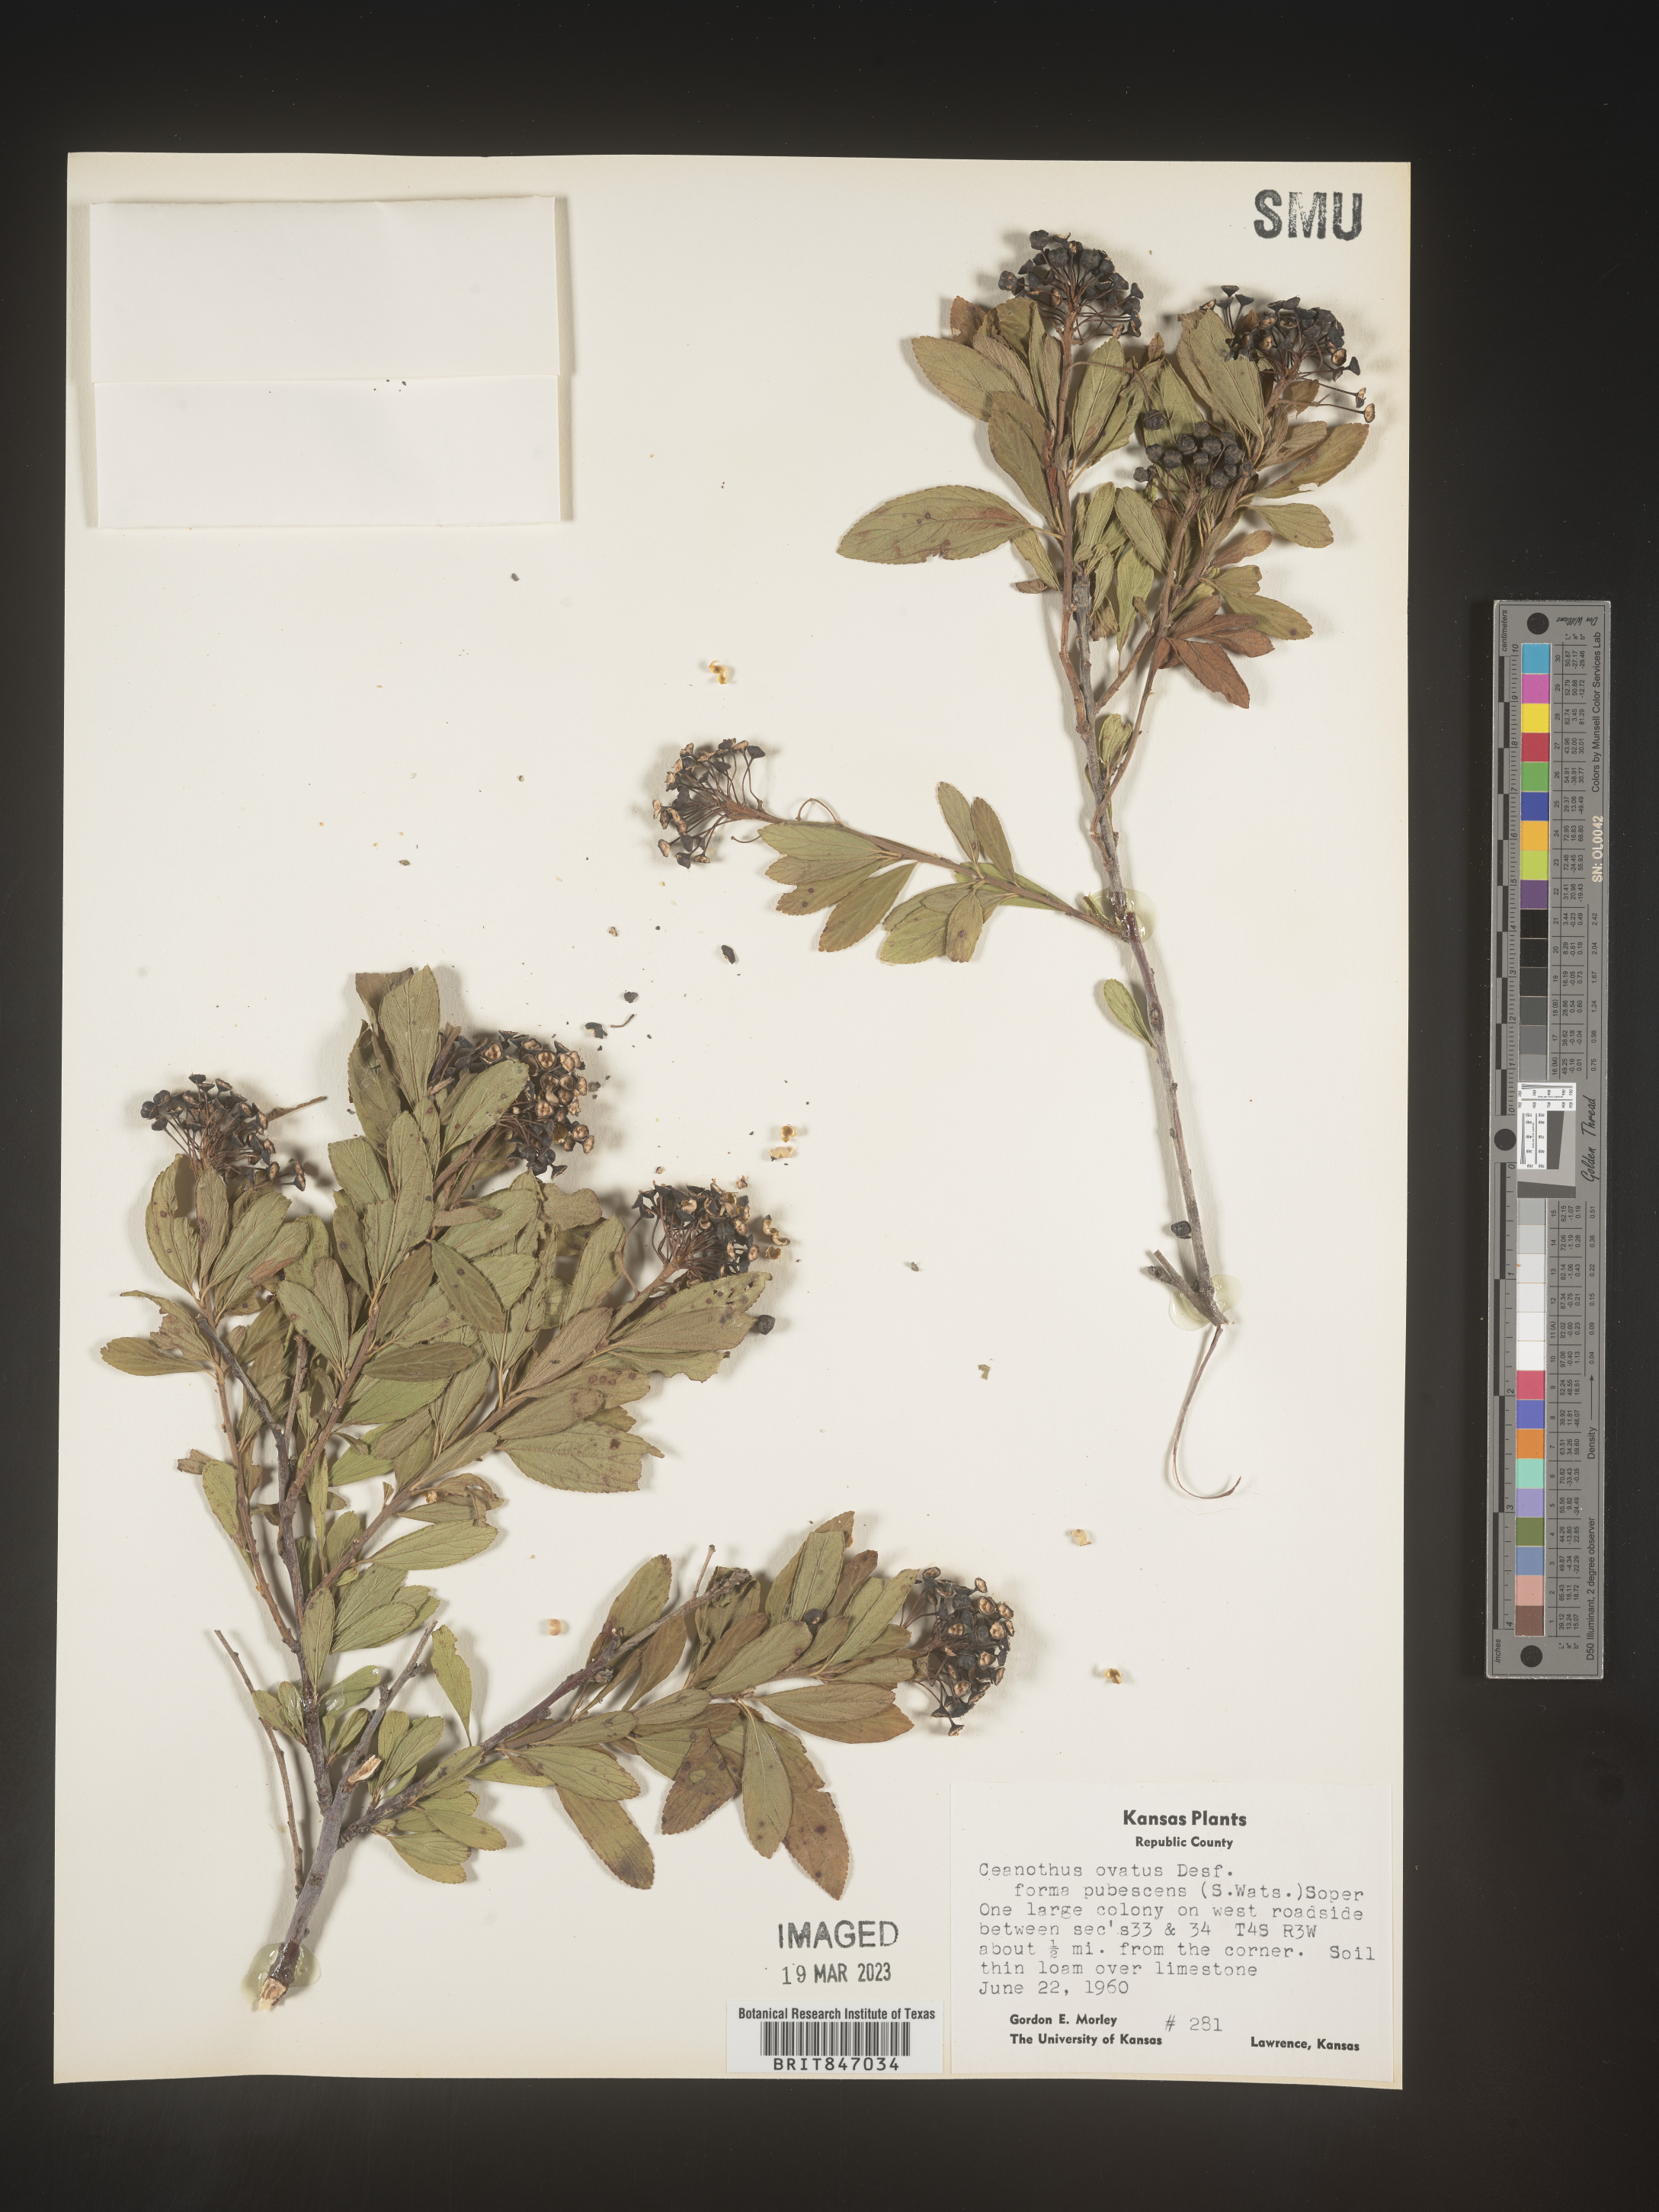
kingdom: Plantae
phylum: Tracheophyta
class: Magnoliopsida
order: Rosales
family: Rhamnaceae
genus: Ceanothus
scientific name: Ceanothus herbaceus
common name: Inland ceanothus
